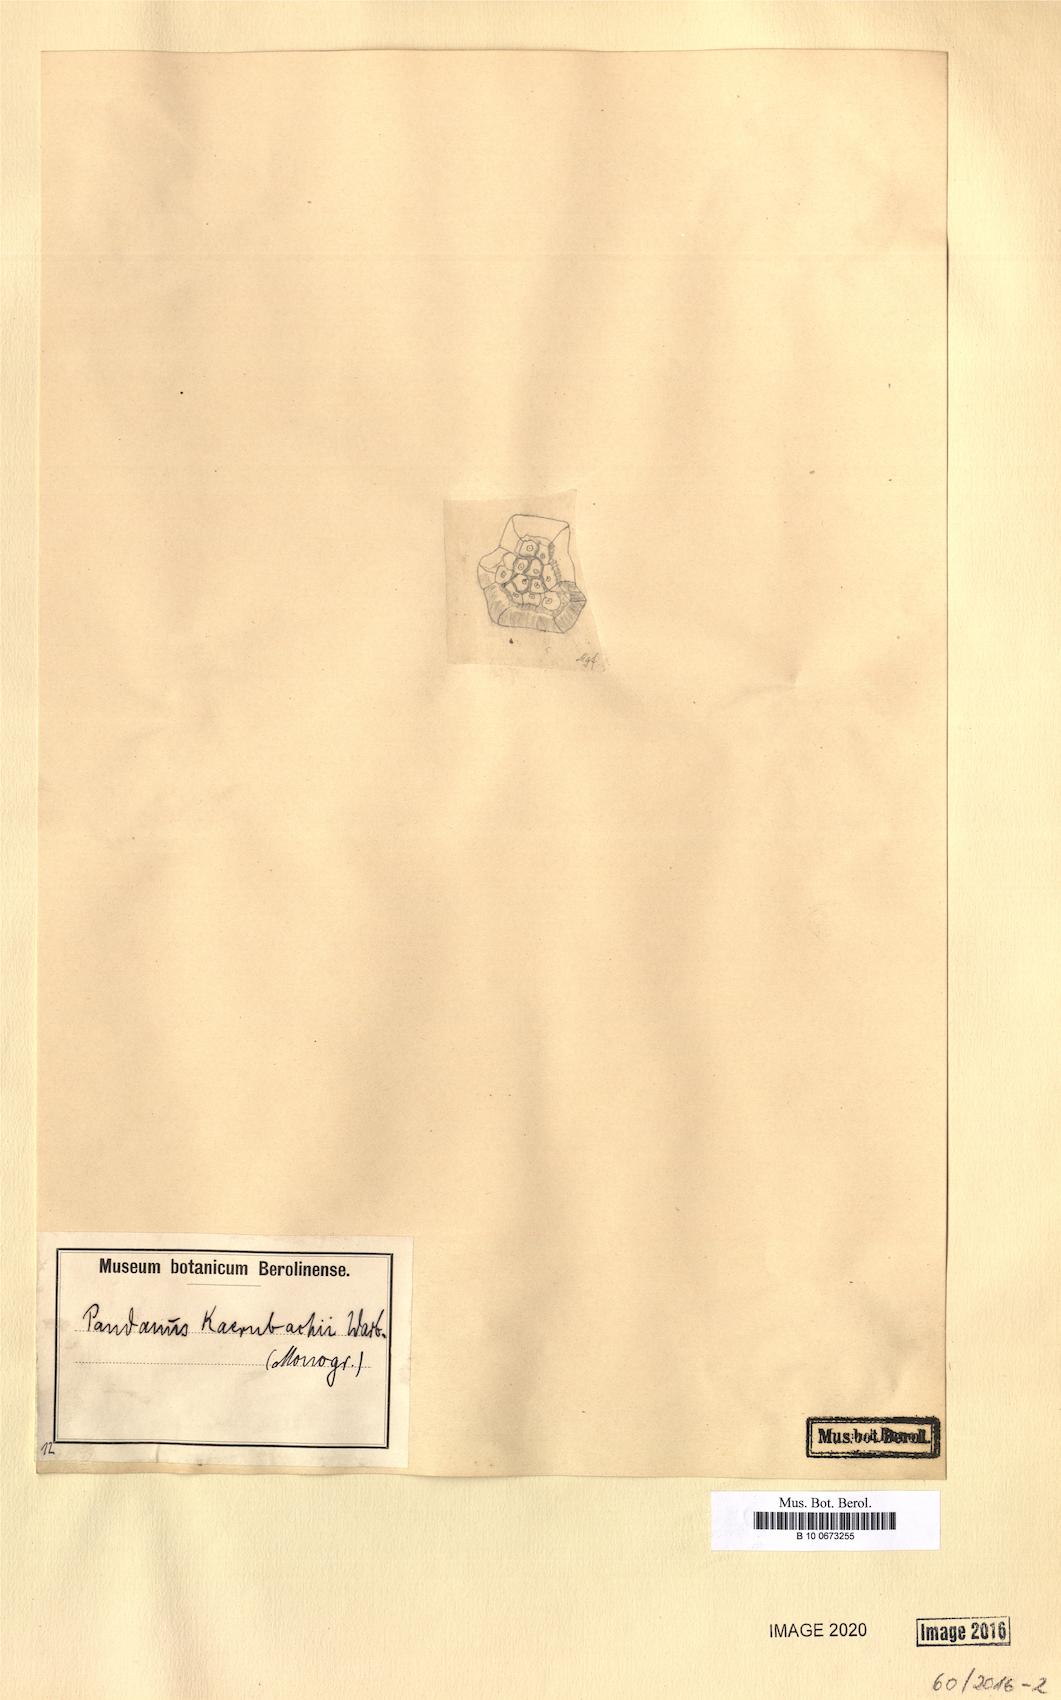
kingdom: Plantae
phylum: Tracheophyta
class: Liliopsida
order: Pandanales
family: Pandanaceae
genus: Pandanus
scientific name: Pandanus kaernbachii
